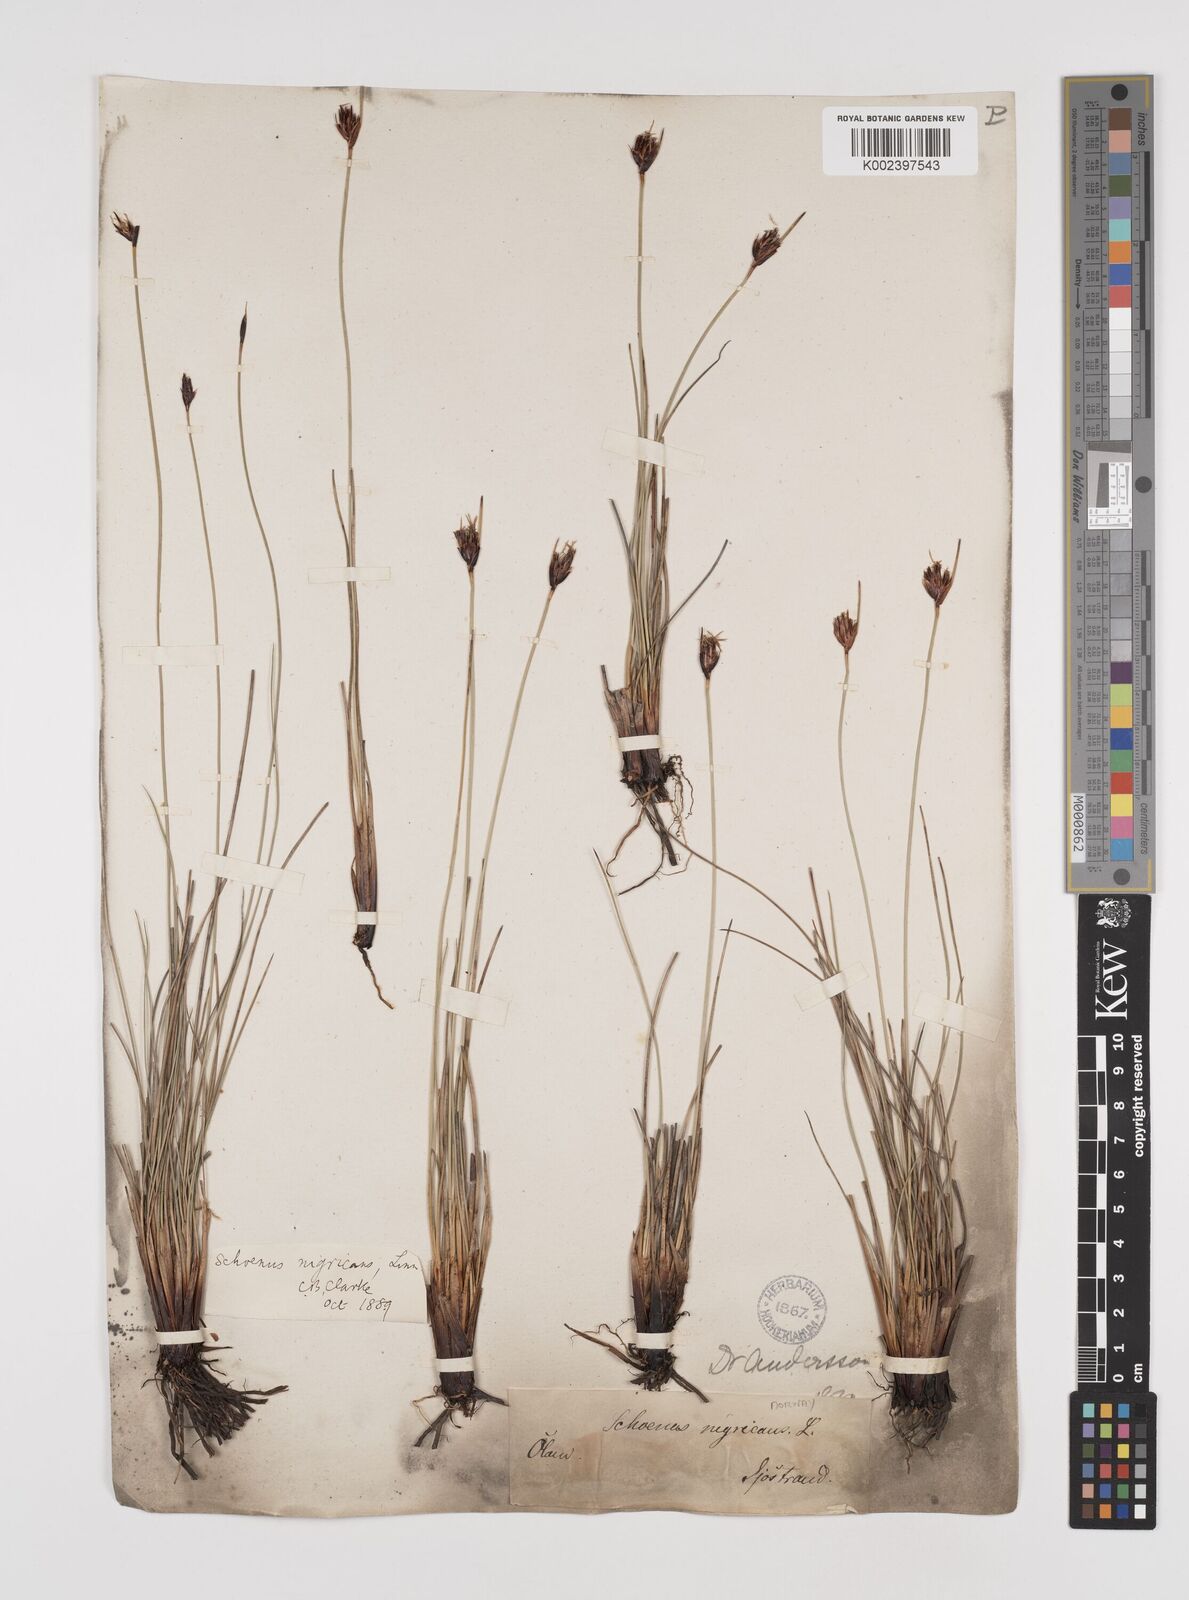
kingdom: Plantae
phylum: Tracheophyta
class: Liliopsida
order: Poales
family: Cyperaceae
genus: Schoenus
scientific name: Schoenus nigricans
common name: Black bog-rush
